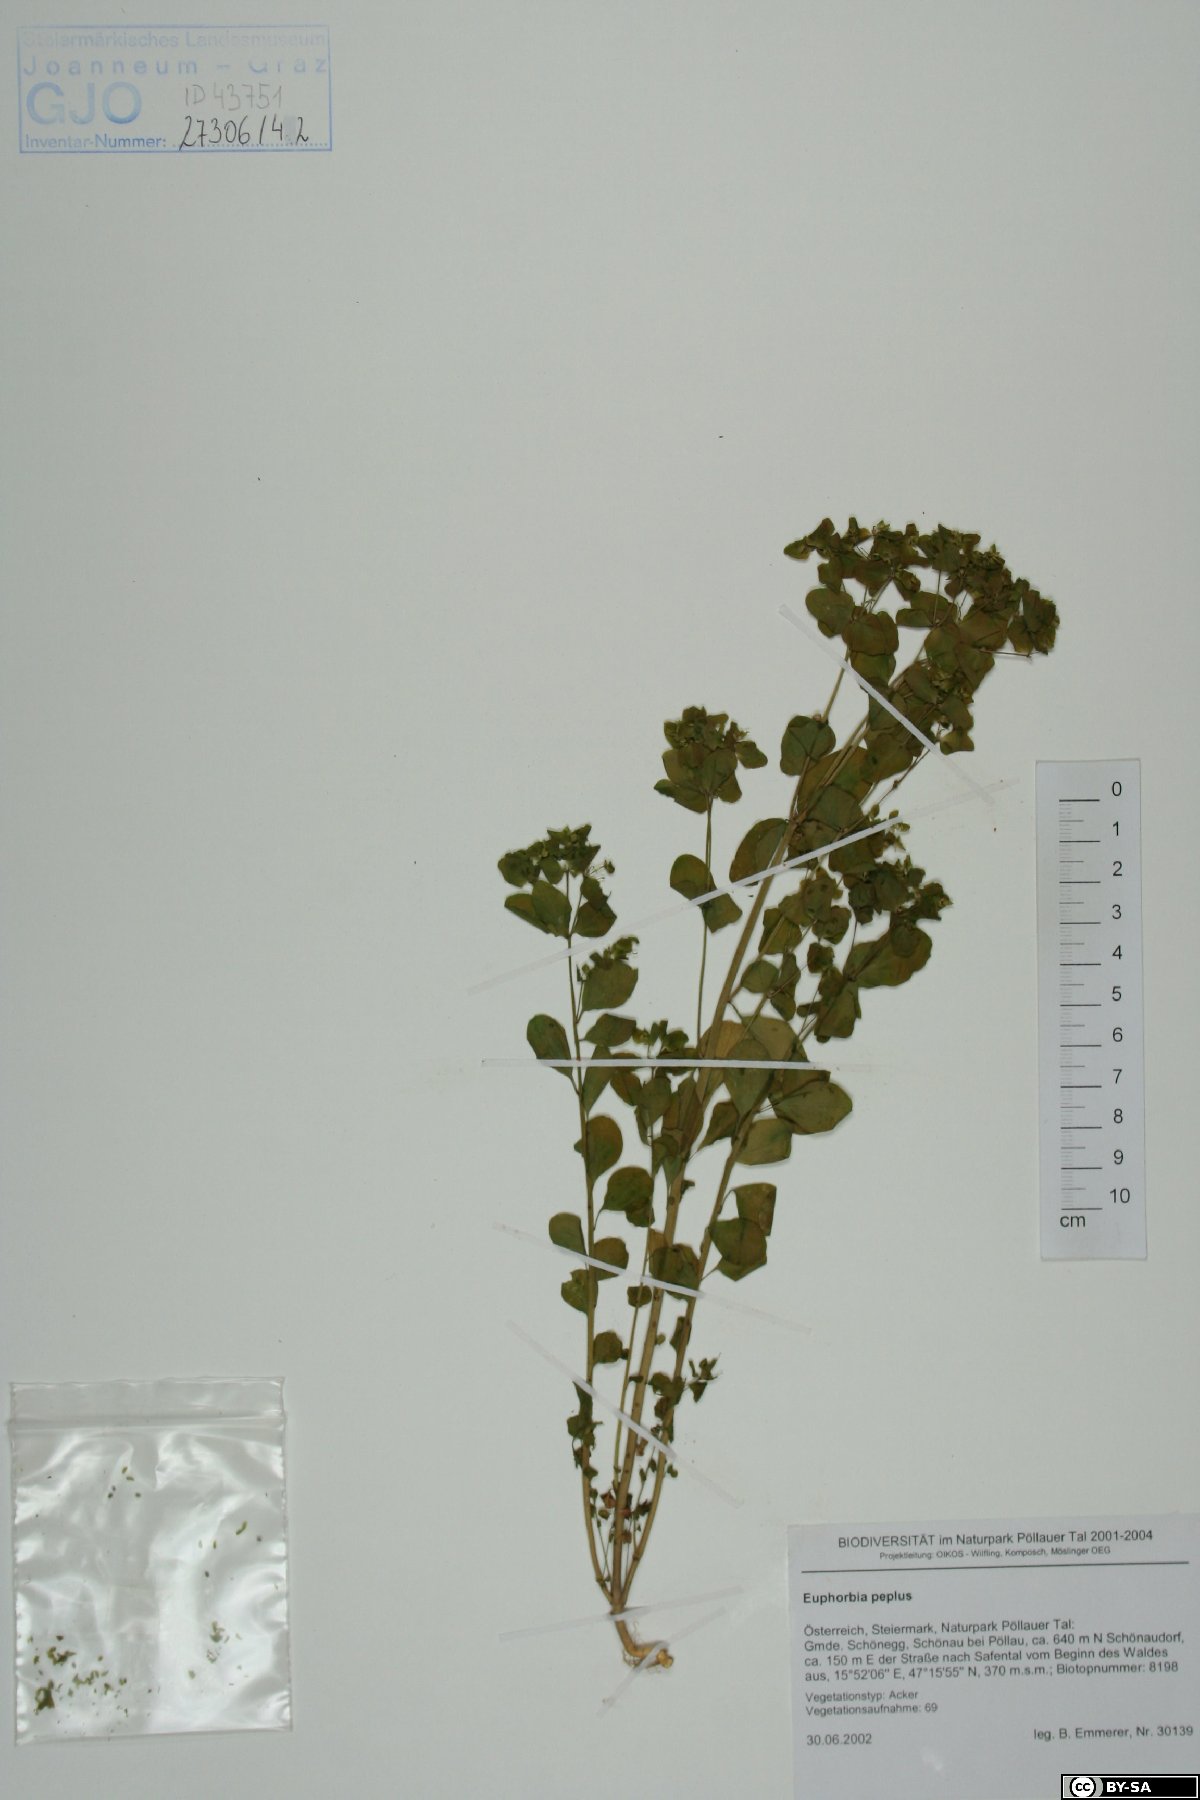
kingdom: Plantae
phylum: Tracheophyta
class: Magnoliopsida
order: Malpighiales
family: Euphorbiaceae
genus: Euphorbia
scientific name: Euphorbia peplus
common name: Petty spurge
